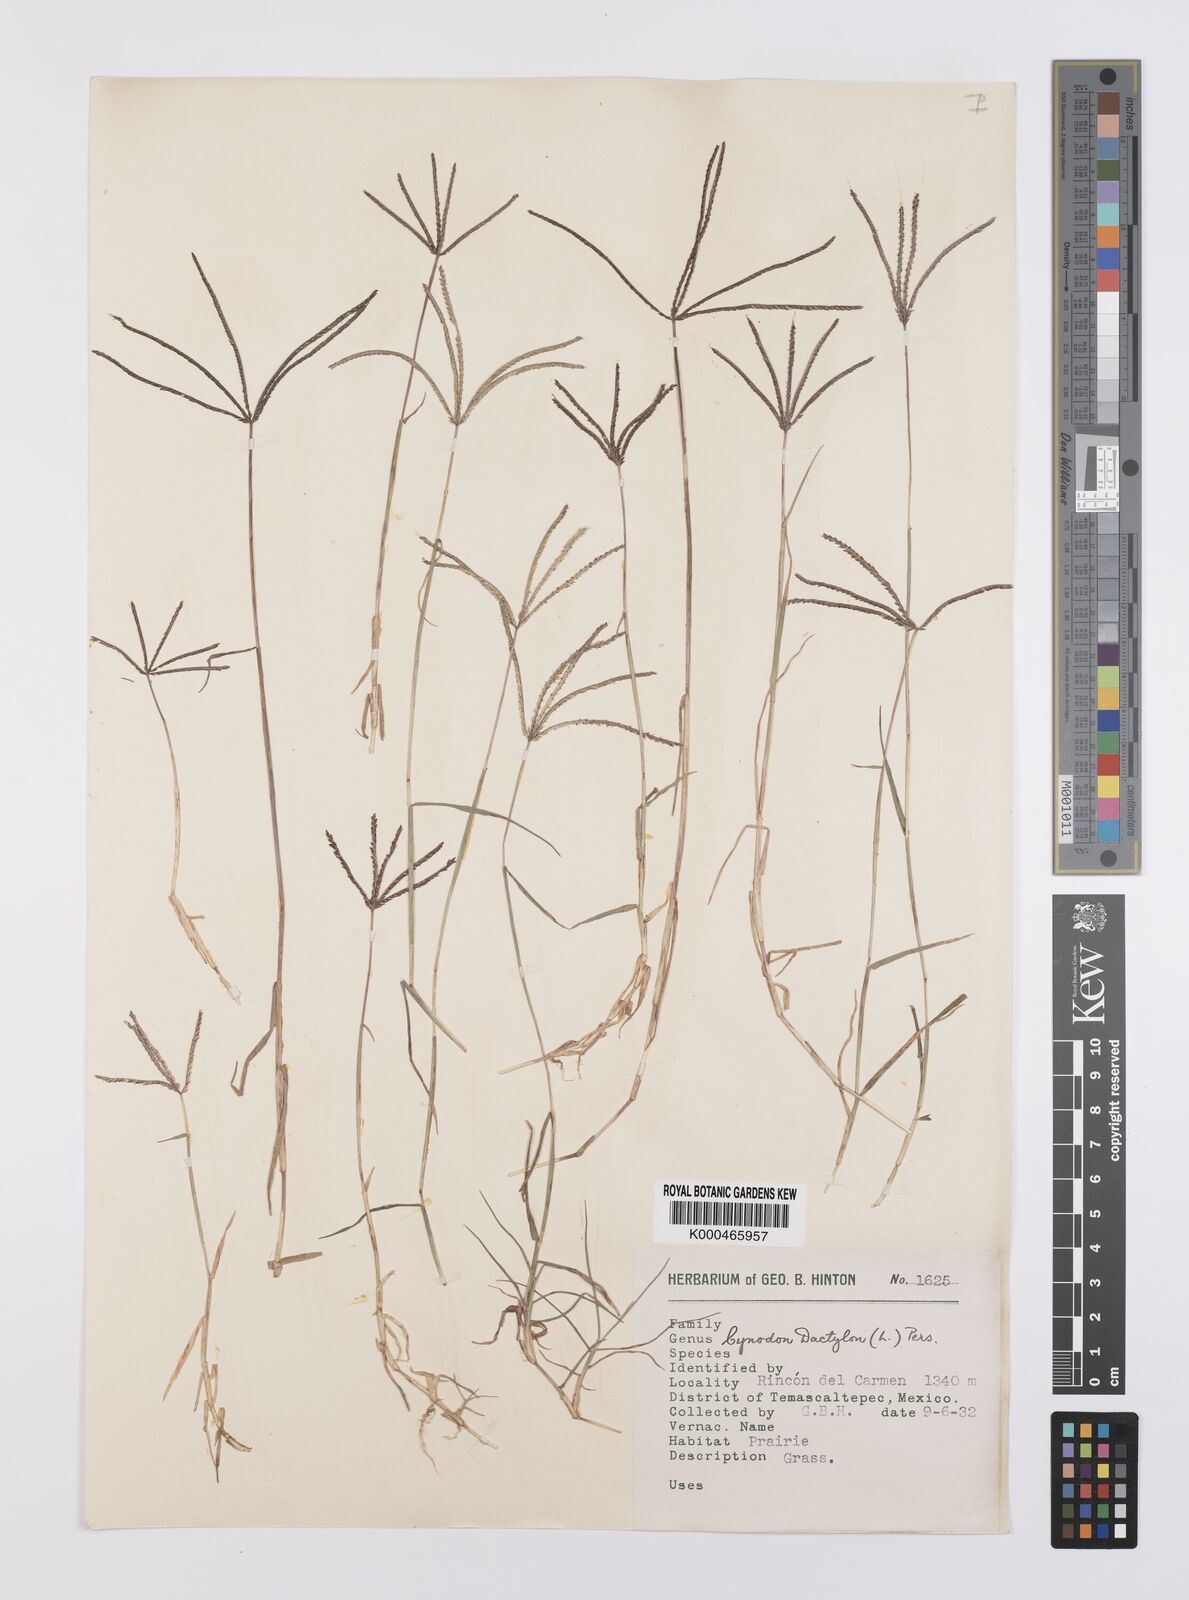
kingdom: Plantae
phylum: Tracheophyta
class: Liliopsida
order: Poales
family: Poaceae
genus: Cynodon
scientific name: Cynodon dactylon
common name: Bermuda grass
